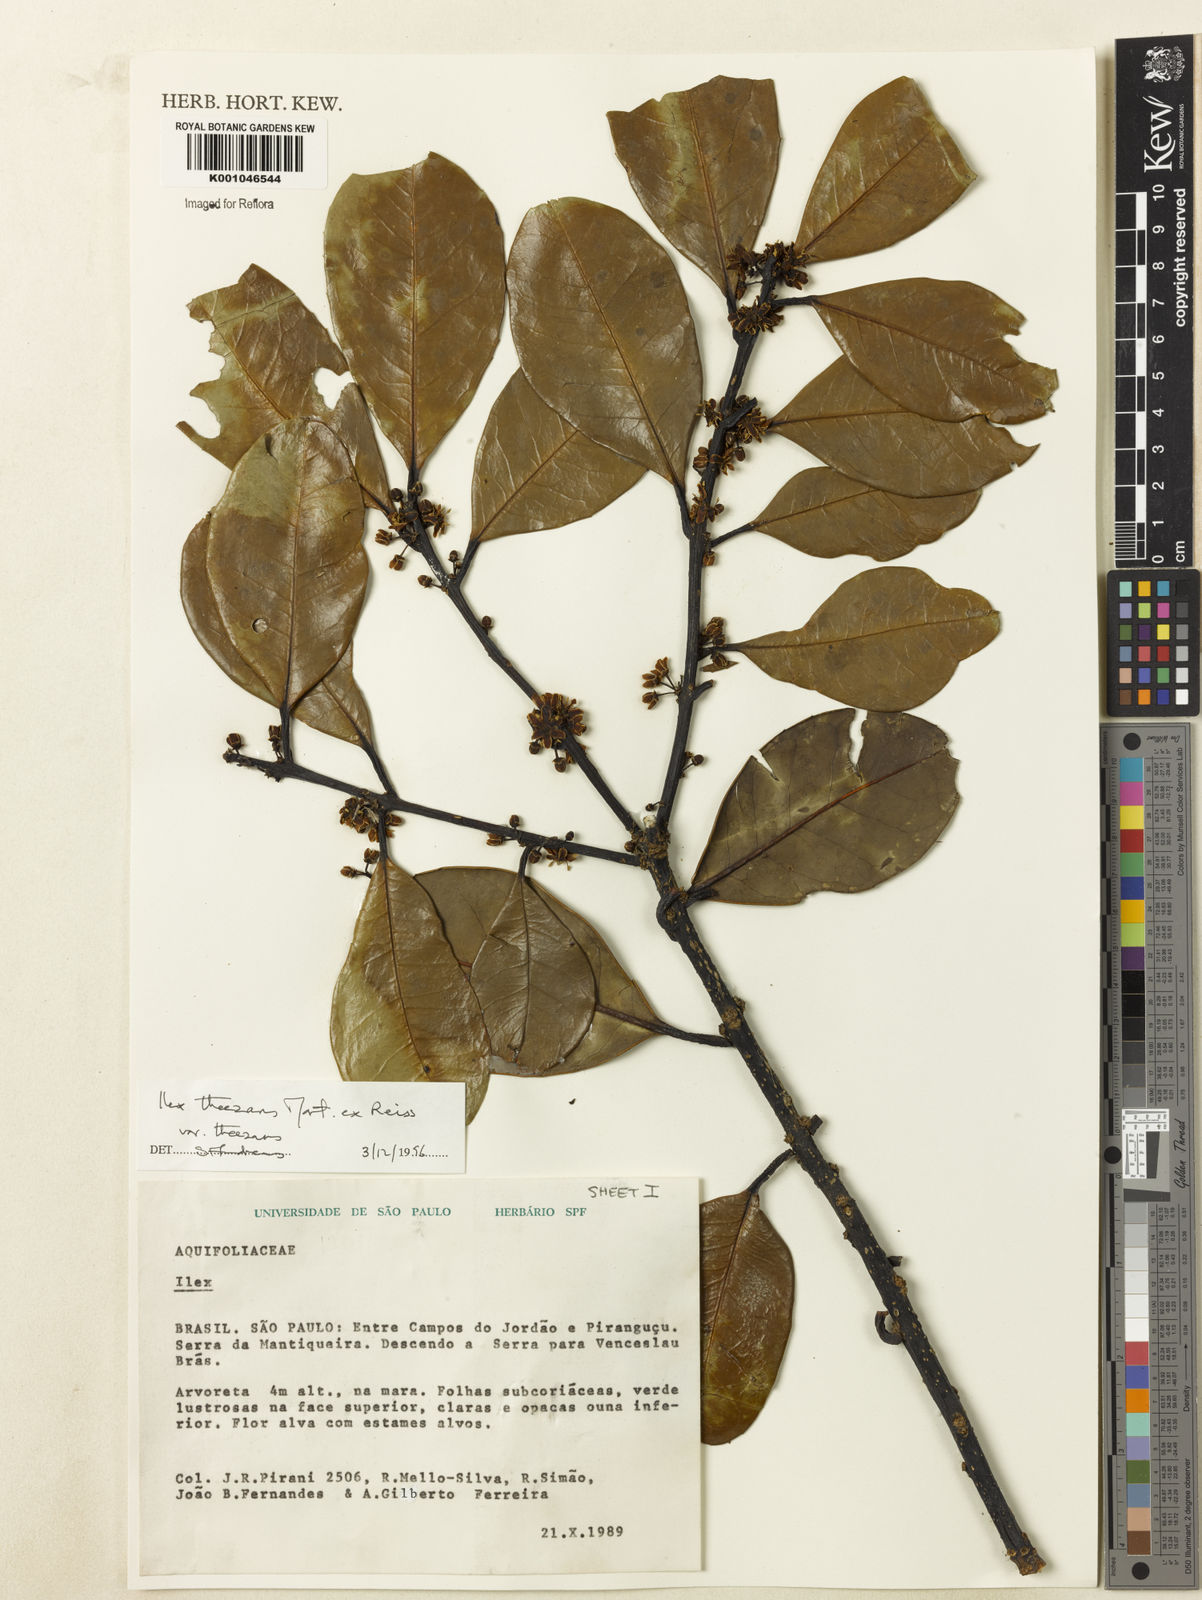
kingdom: Plantae
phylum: Tracheophyta
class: Magnoliopsida
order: Aquifoliales
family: Aquifoliaceae
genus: Ilex
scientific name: Ilex theezans
